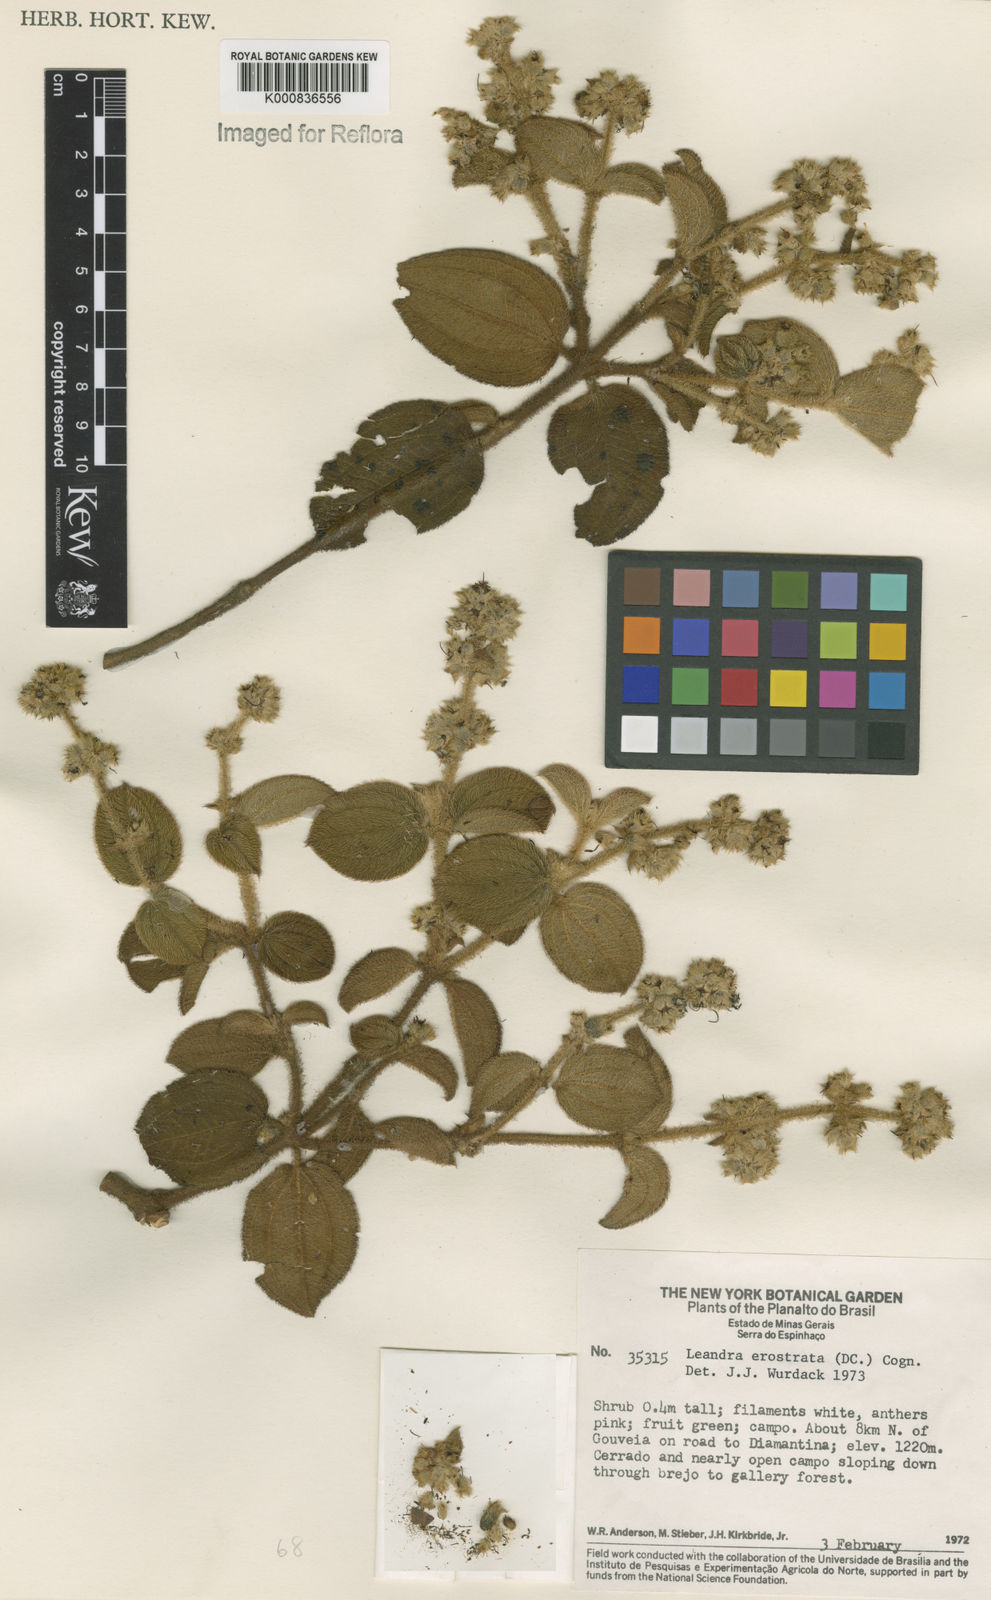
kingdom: Plantae
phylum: Tracheophyta
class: Magnoliopsida
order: Myrtales
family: Melastomataceae
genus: Miconia
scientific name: Miconia erostrata
